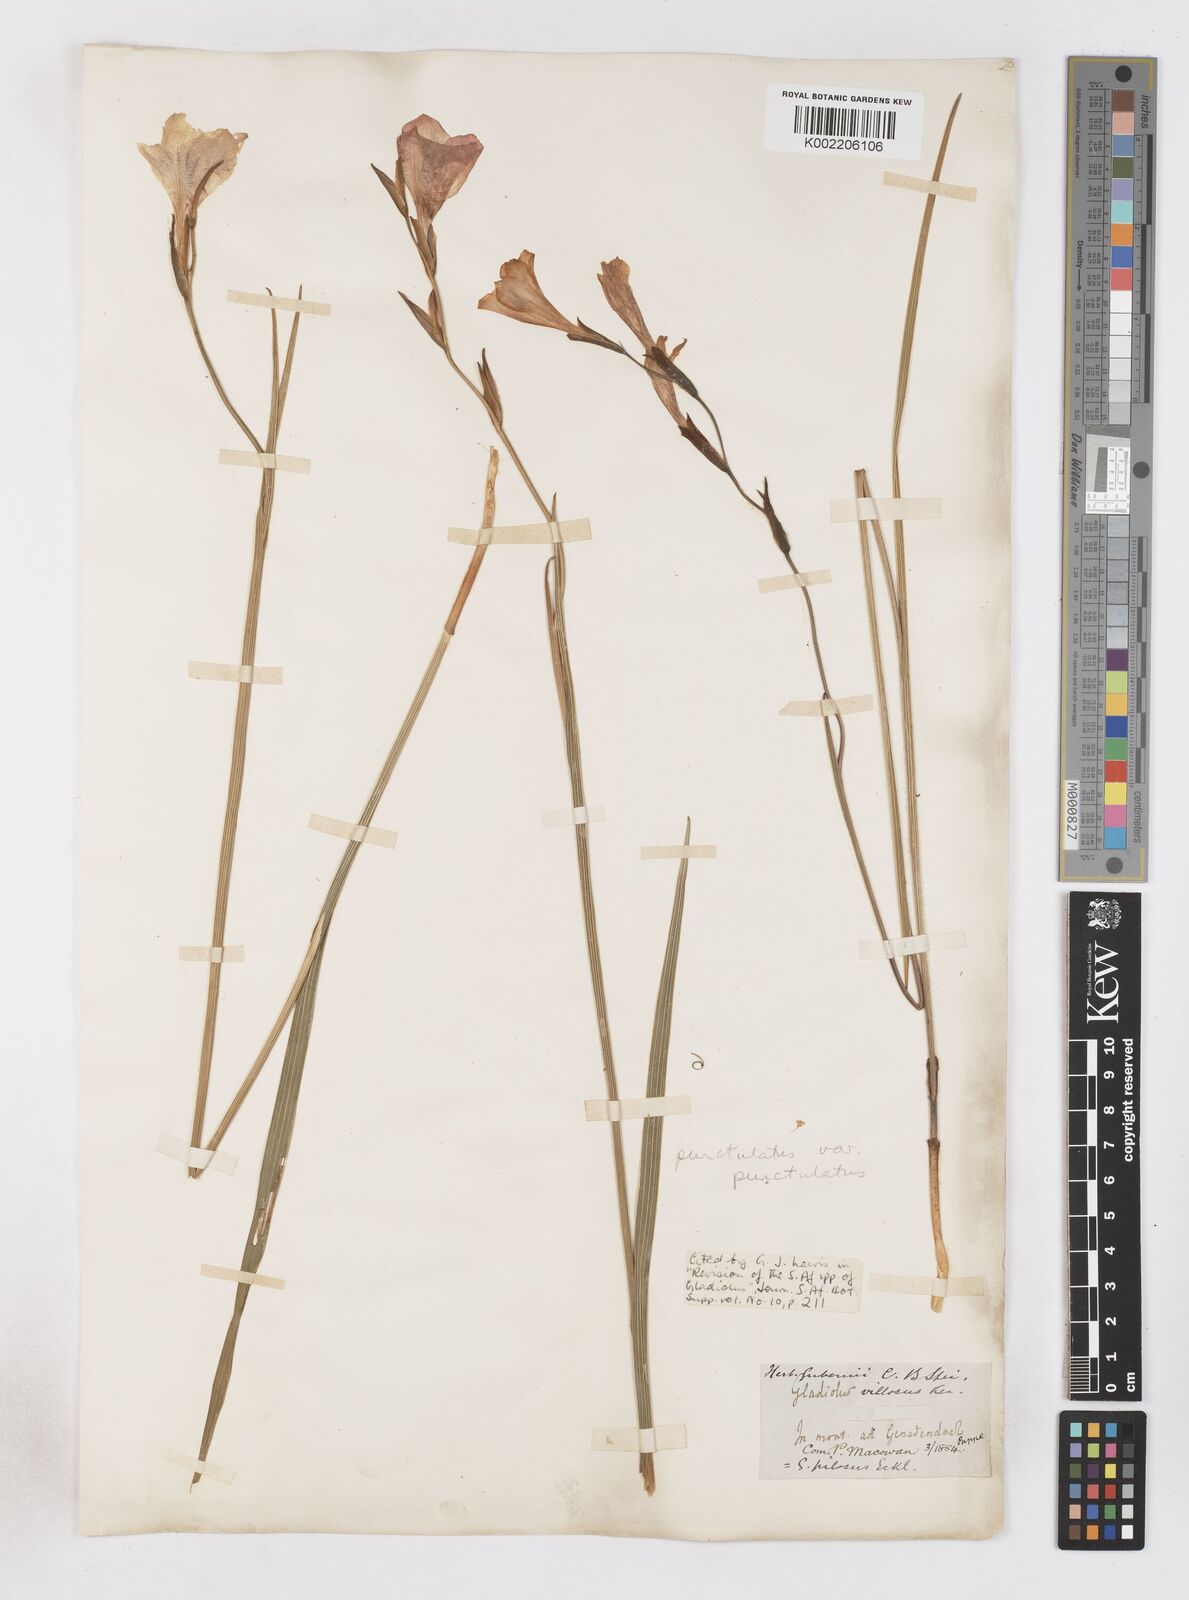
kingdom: Plantae
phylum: Tracheophyta
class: Liliopsida
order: Asparagales
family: Iridaceae
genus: Gladiolus
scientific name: Gladiolus hirsutus
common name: Small pink afrikaner
